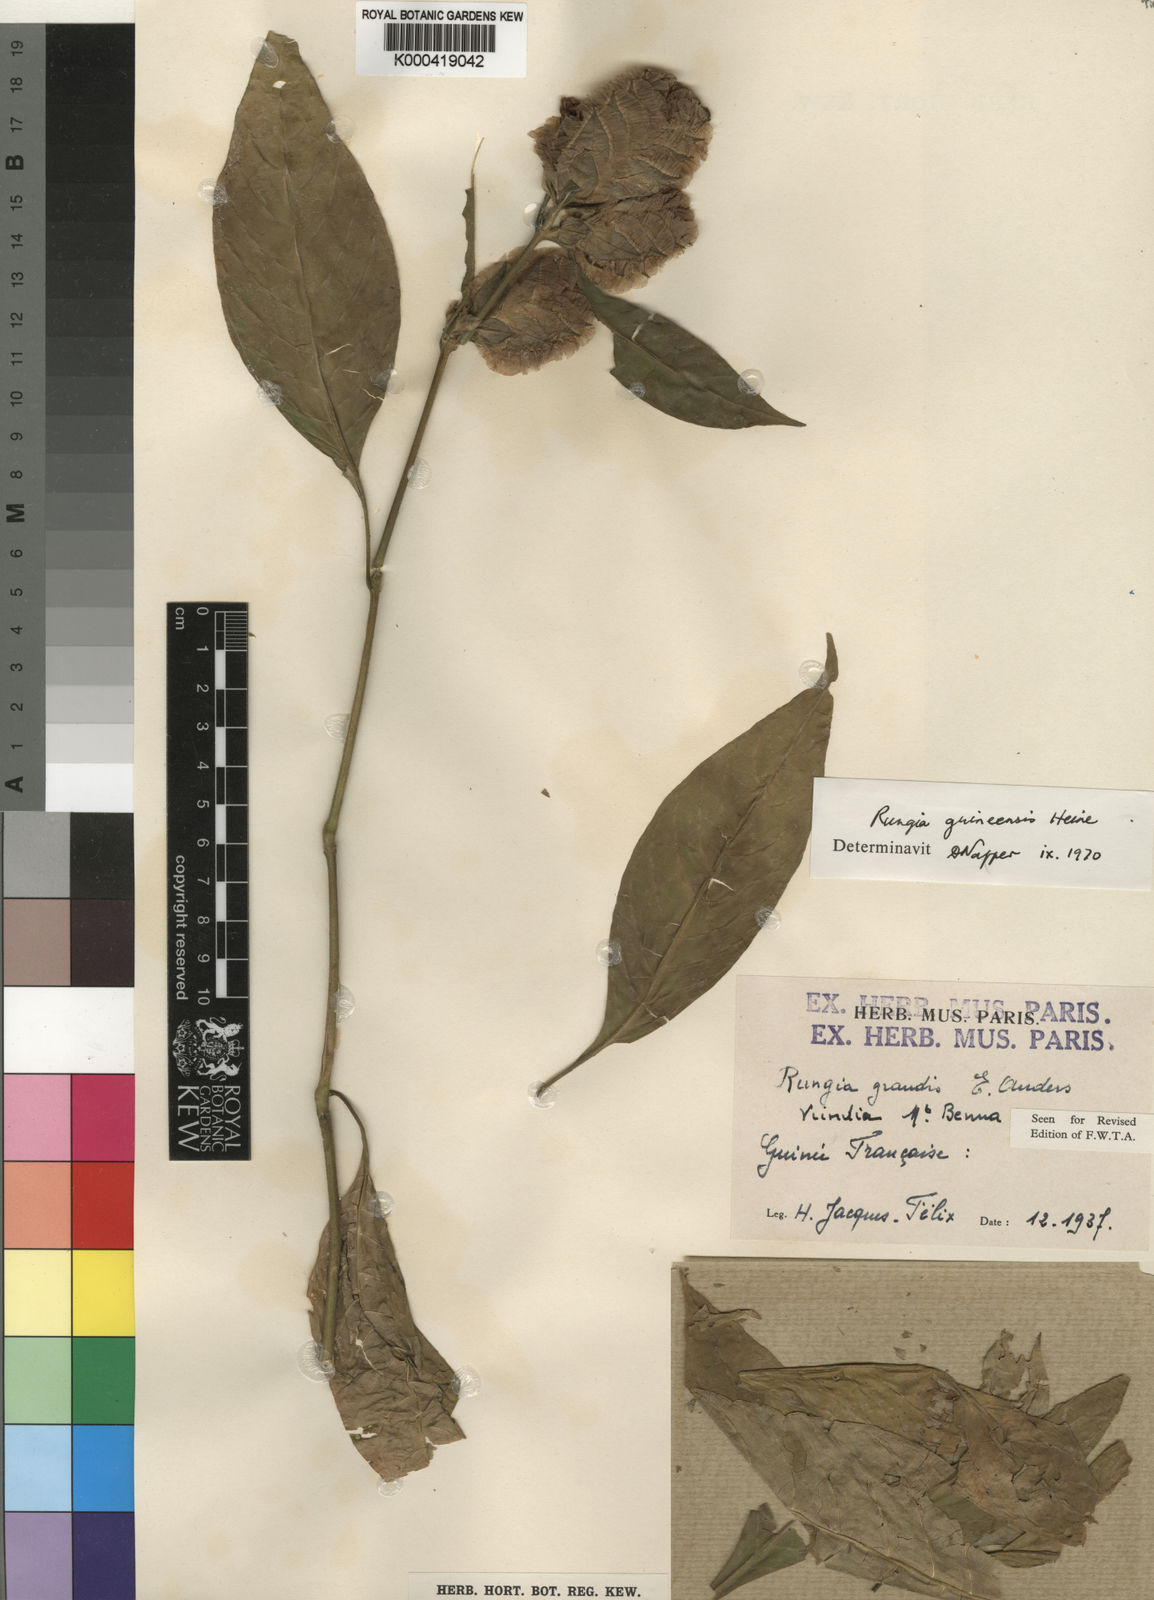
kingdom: Plantae
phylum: Tracheophyta
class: Magnoliopsida
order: Lamiales
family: Acanthaceae
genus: Justicia
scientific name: Justicia
